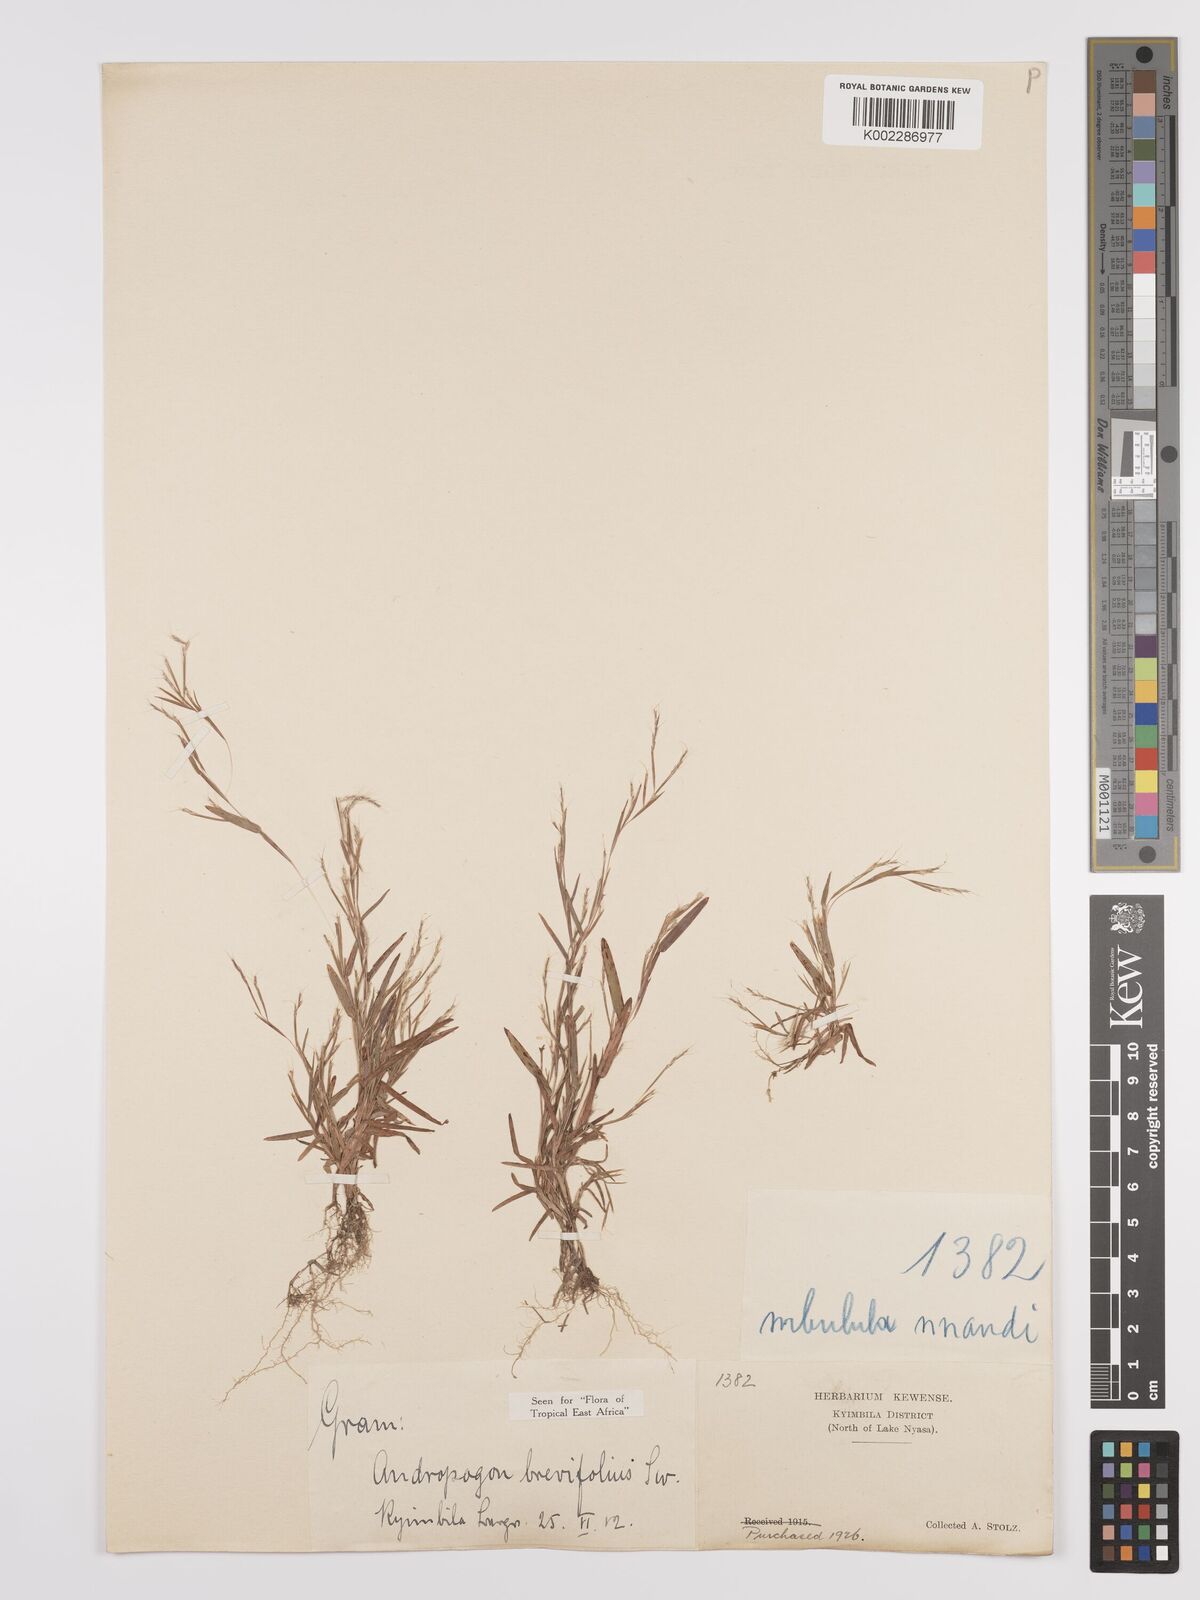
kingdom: Plantae
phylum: Tracheophyta
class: Liliopsida
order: Poales
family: Poaceae
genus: Schizachyrium
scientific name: Schizachyrium brevifolium
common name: Serillo dulce
